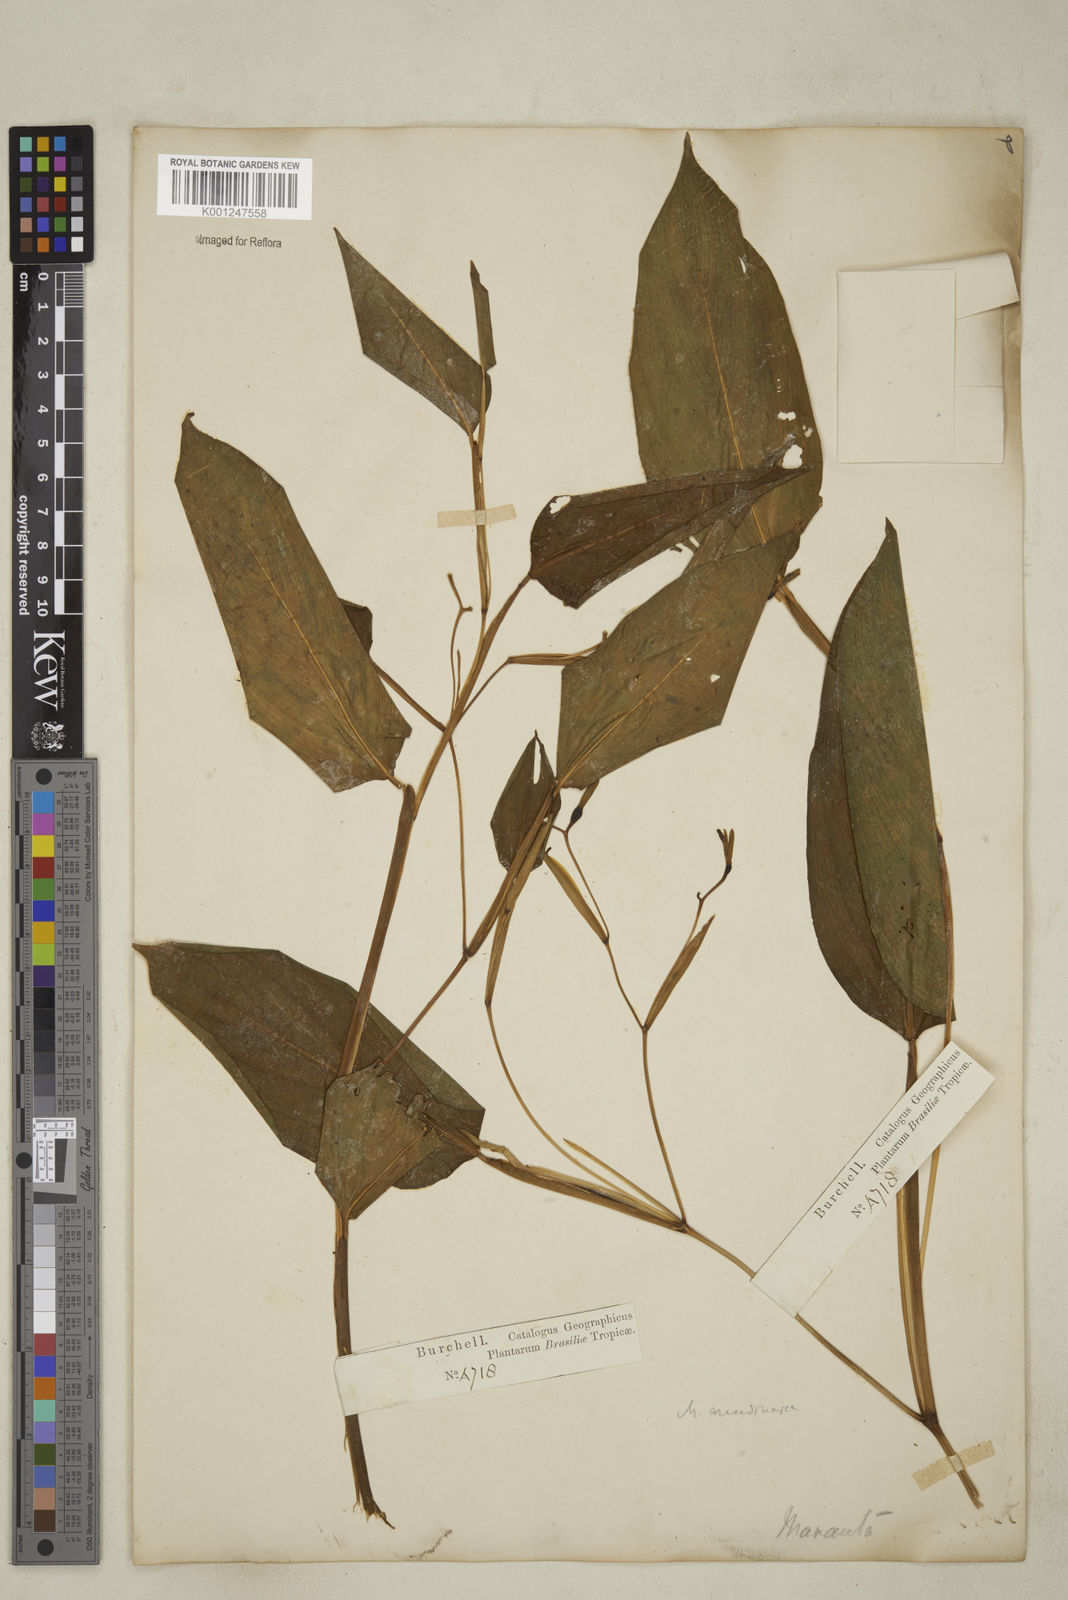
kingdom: Plantae
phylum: Tracheophyta
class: Liliopsida
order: Zingiberales
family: Marantaceae
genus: Maranta
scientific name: Maranta arundinacea
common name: Arrowroot
